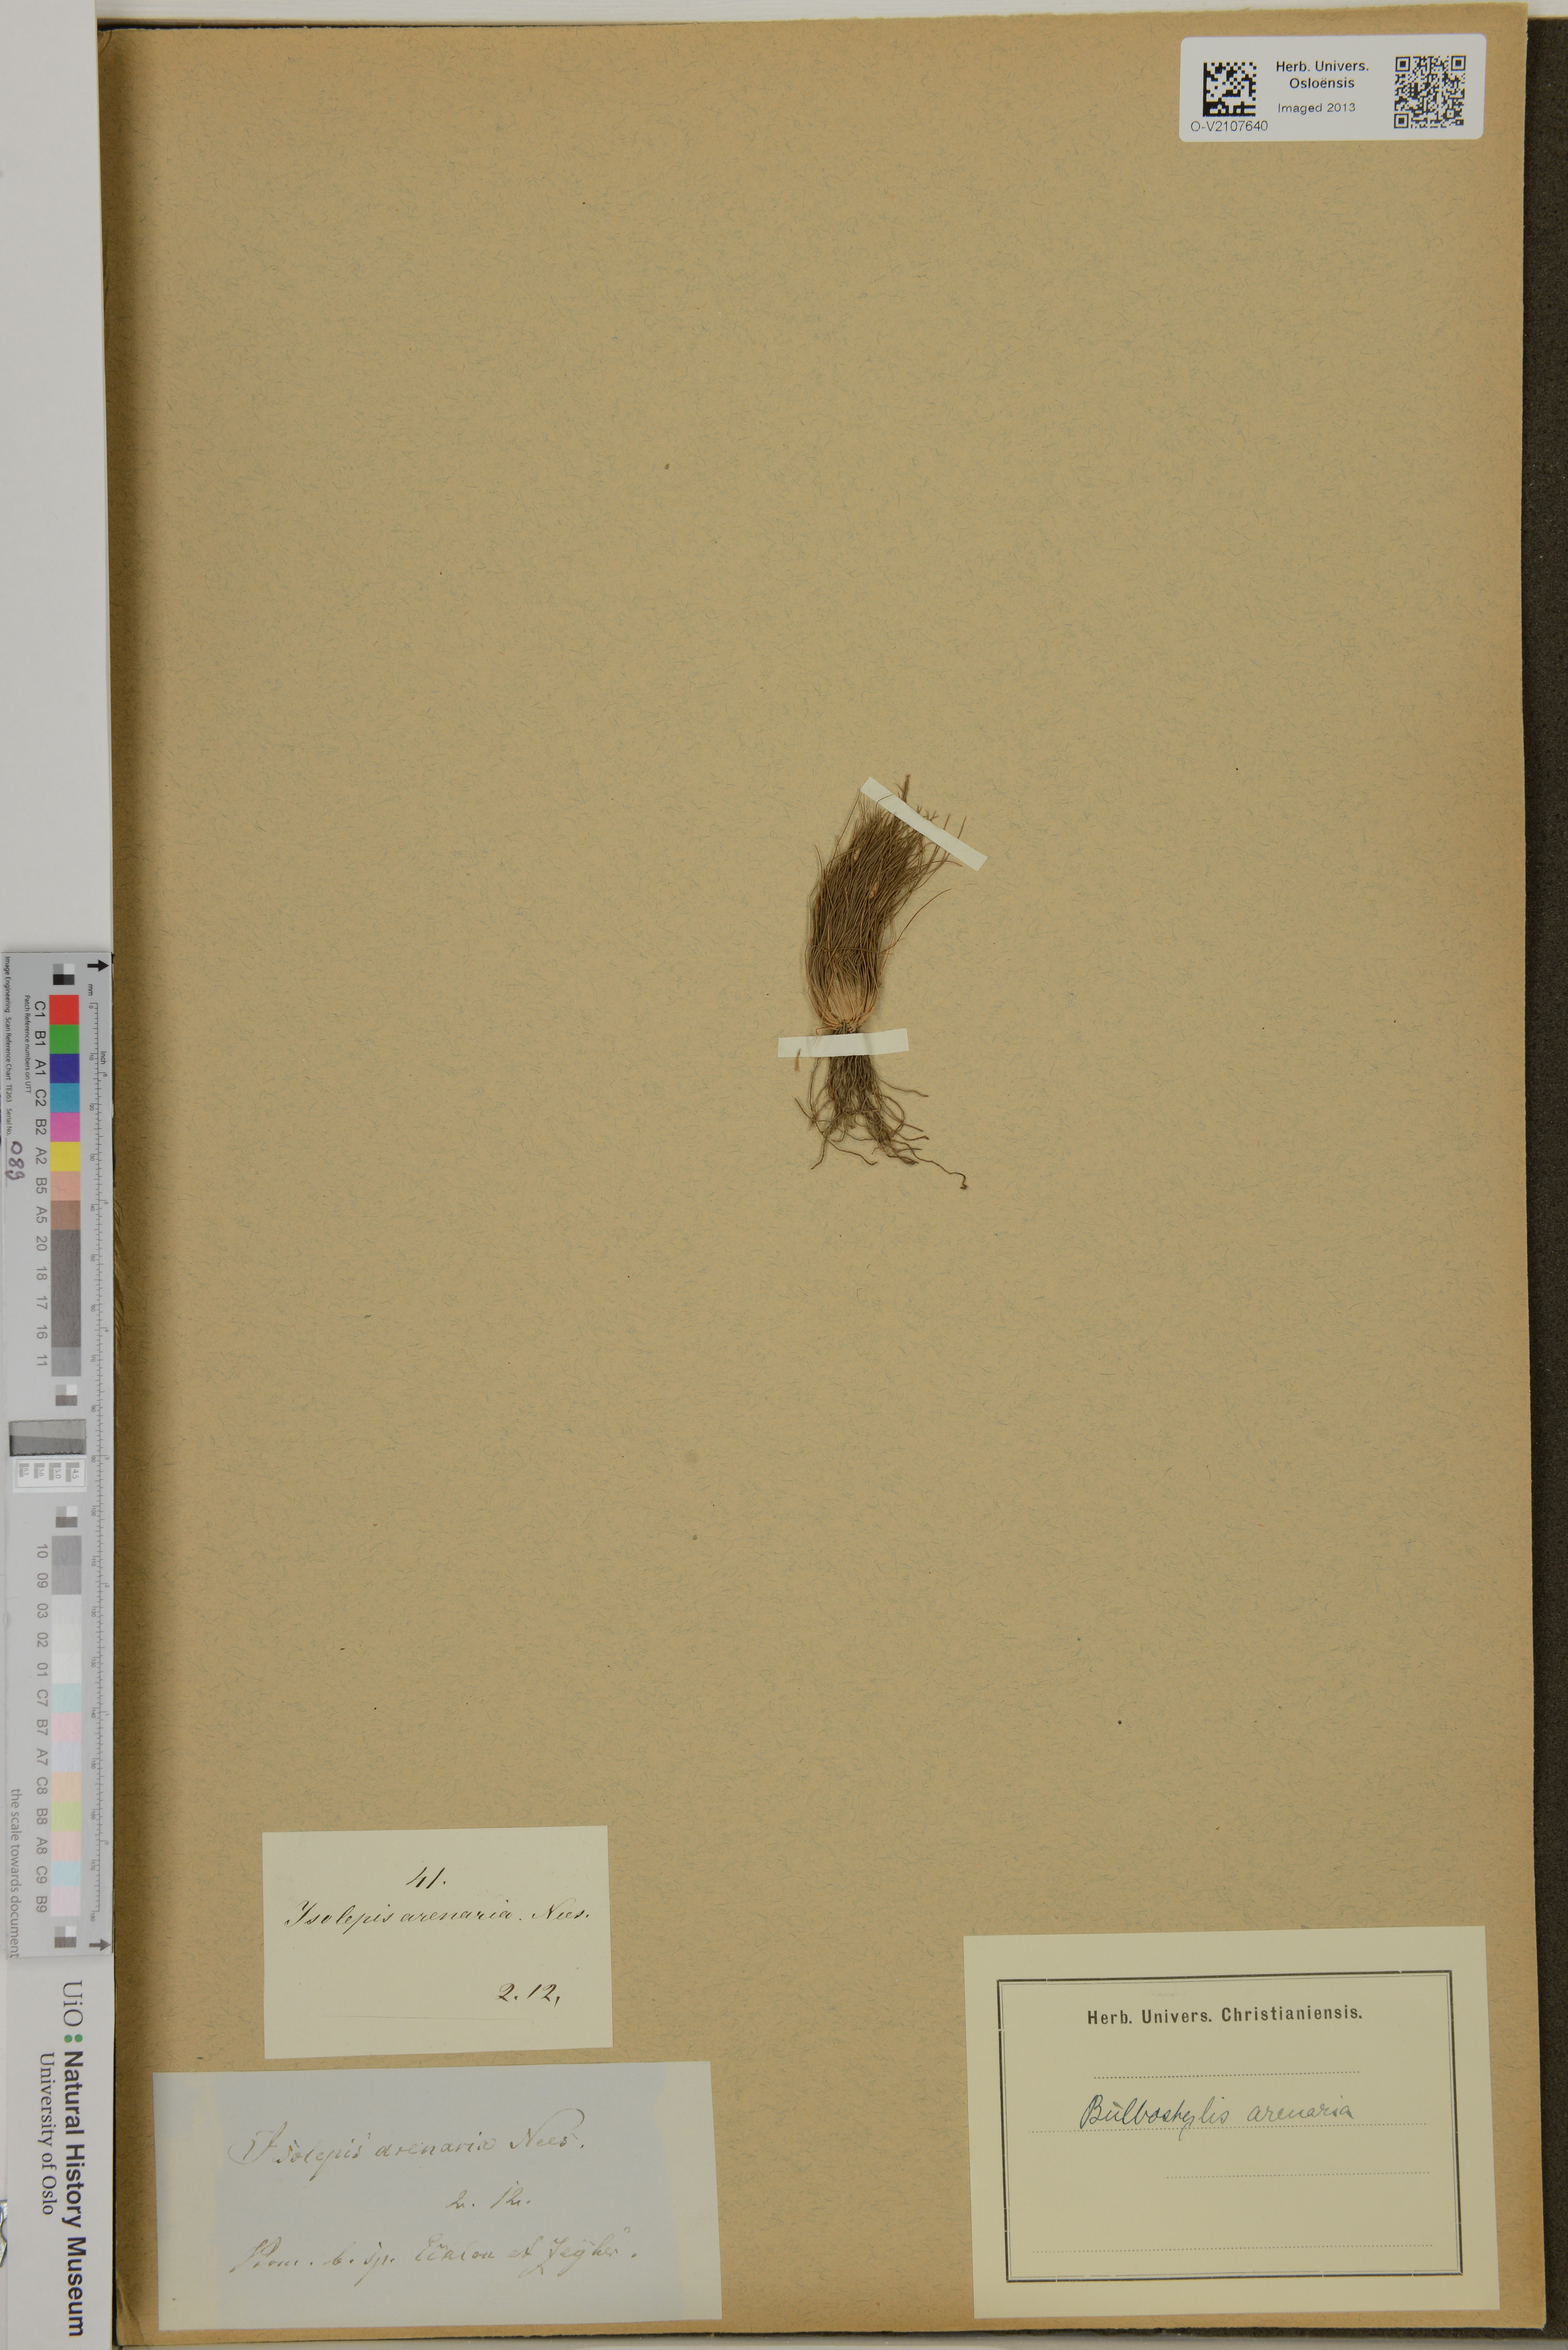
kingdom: Plantae
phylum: Tracheophyta
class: Liliopsida
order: Poales
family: Cyperaceae
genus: Eleocharis
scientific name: Eleocharis glauca
